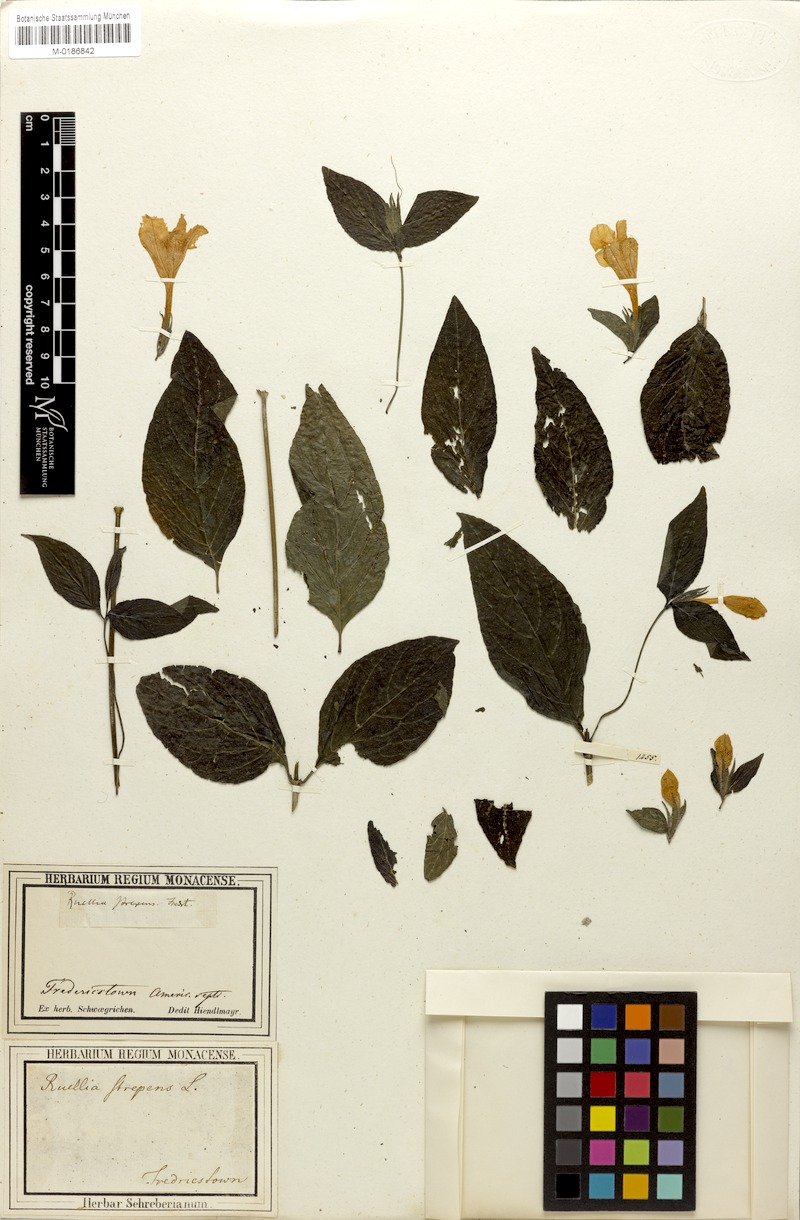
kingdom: Plantae
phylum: Tracheophyta
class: Magnoliopsida
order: Lamiales
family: Acanthaceae
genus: Ruellia
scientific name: Ruellia strepens
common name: Limestone wild petunia
